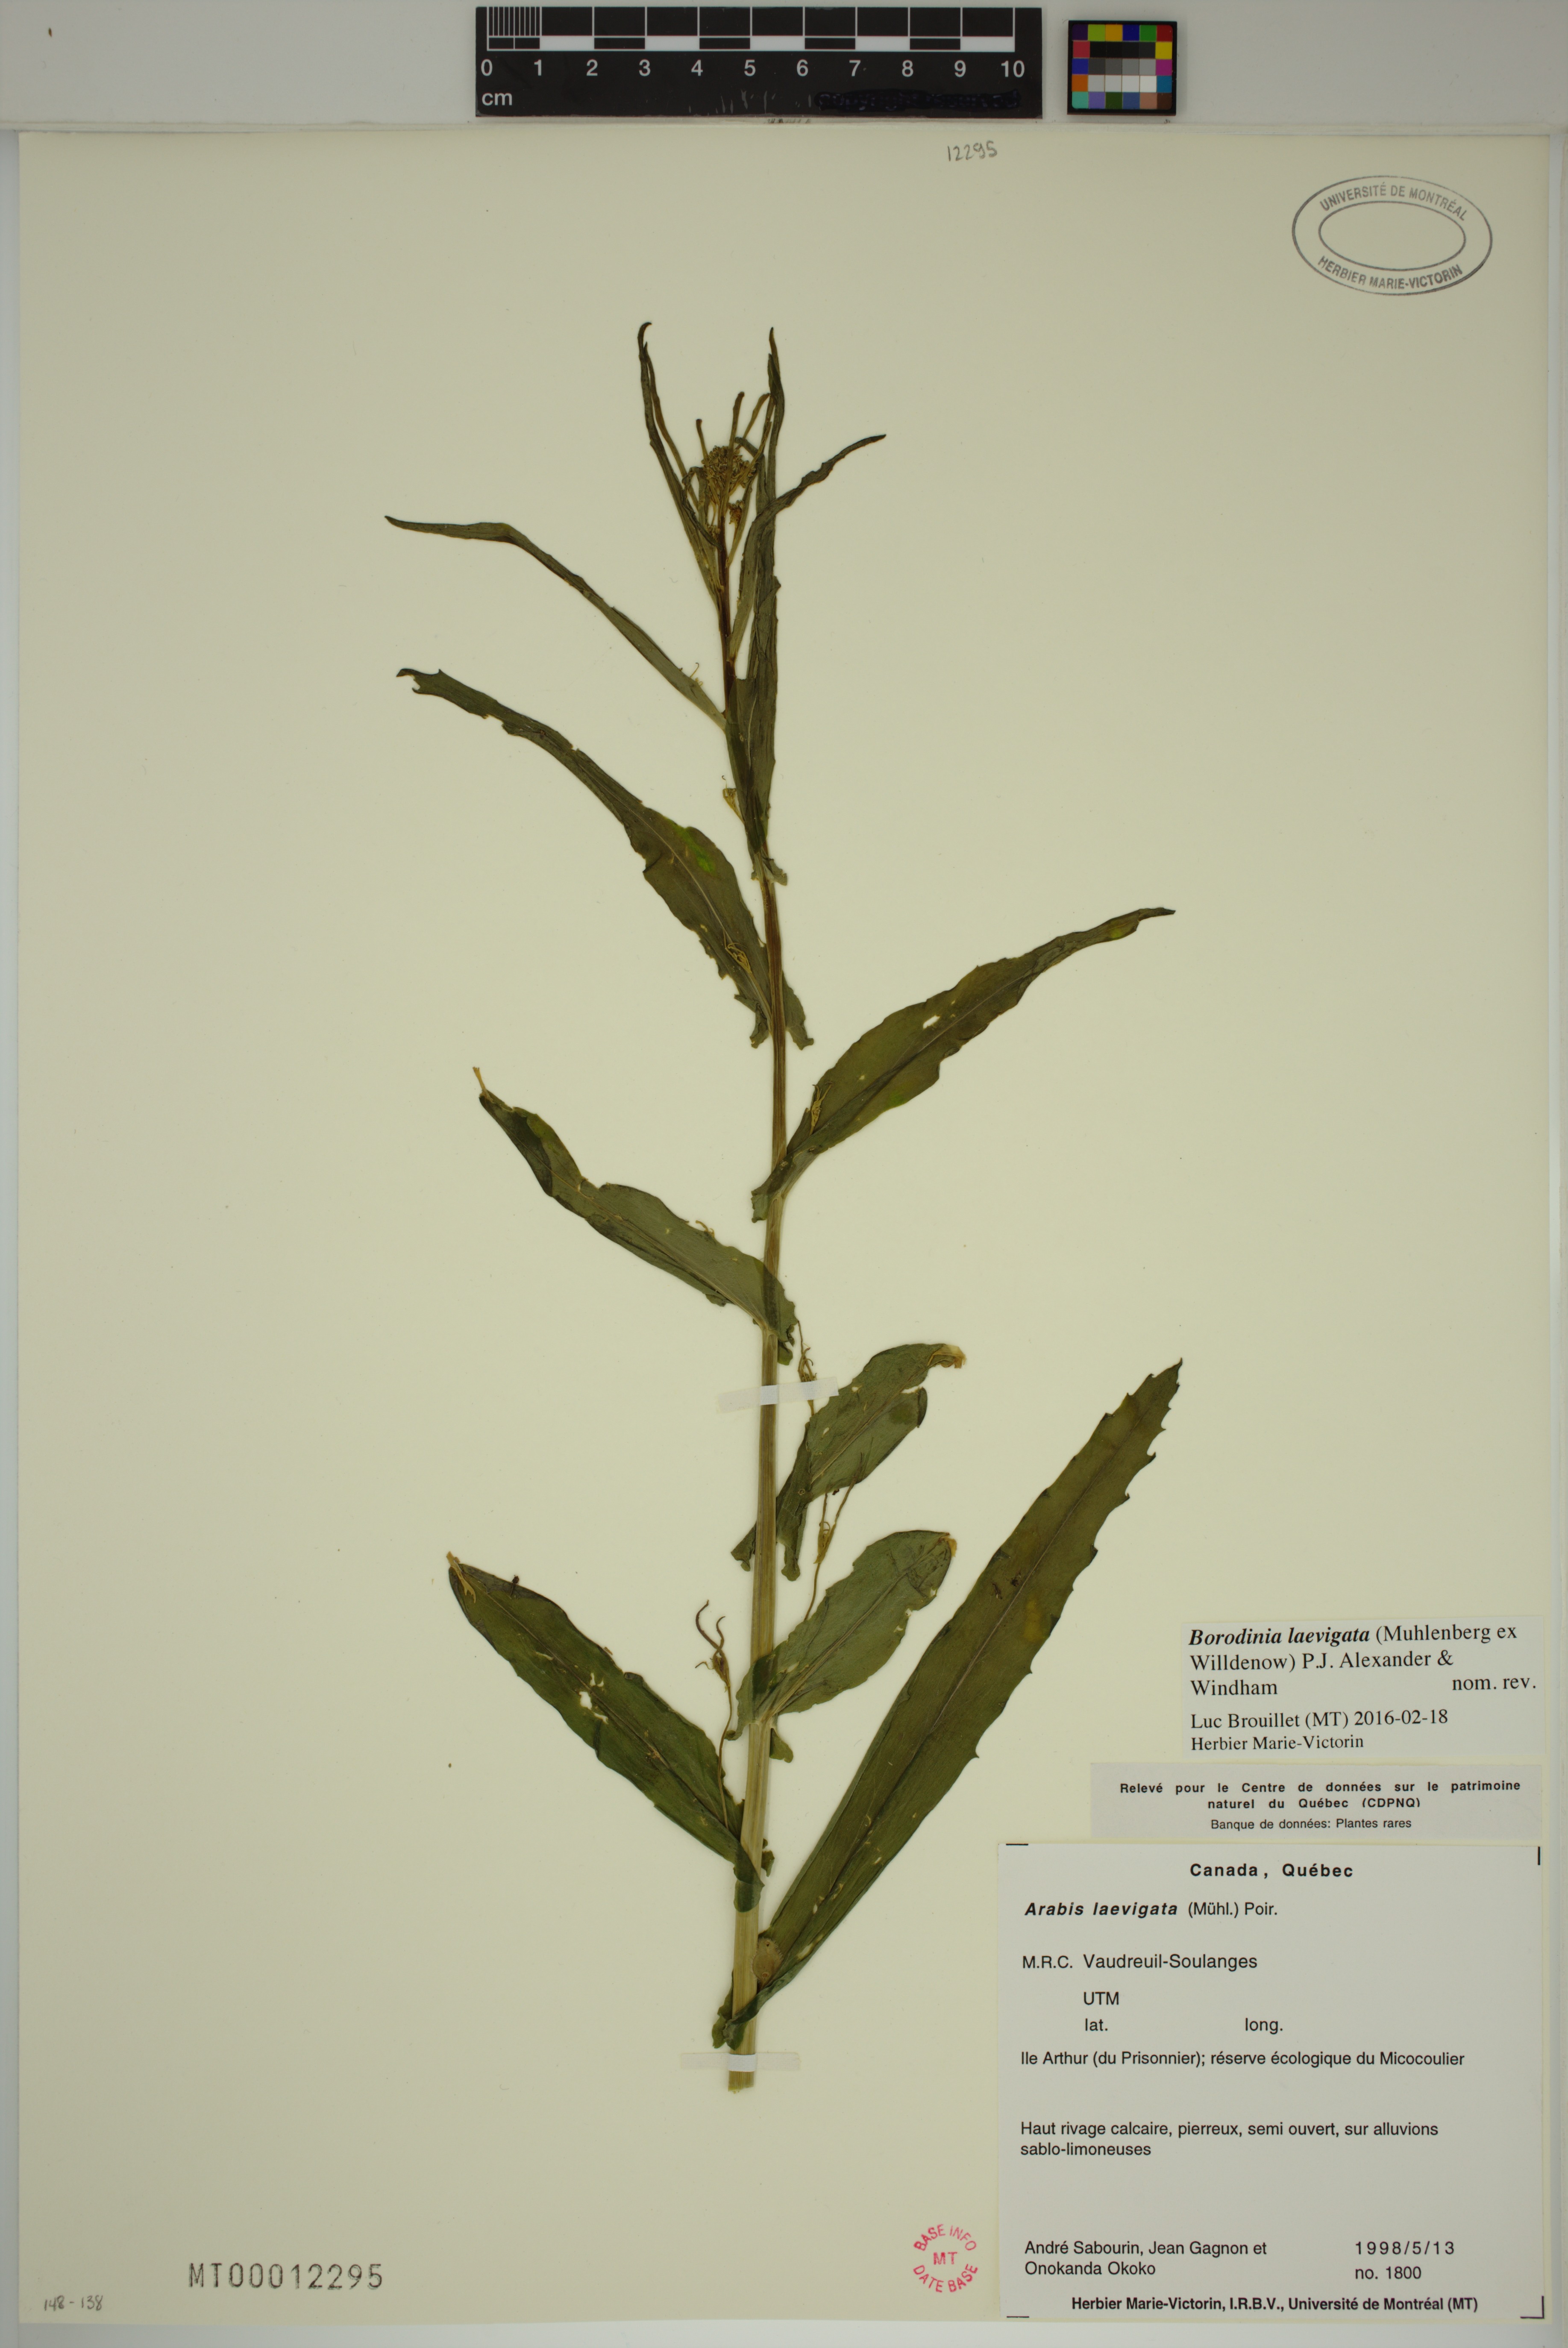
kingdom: Plantae
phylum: Tracheophyta
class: Magnoliopsida
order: Brassicales
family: Brassicaceae
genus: Borodinia
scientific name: Borodinia laevigata
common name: Smooth rockcress
